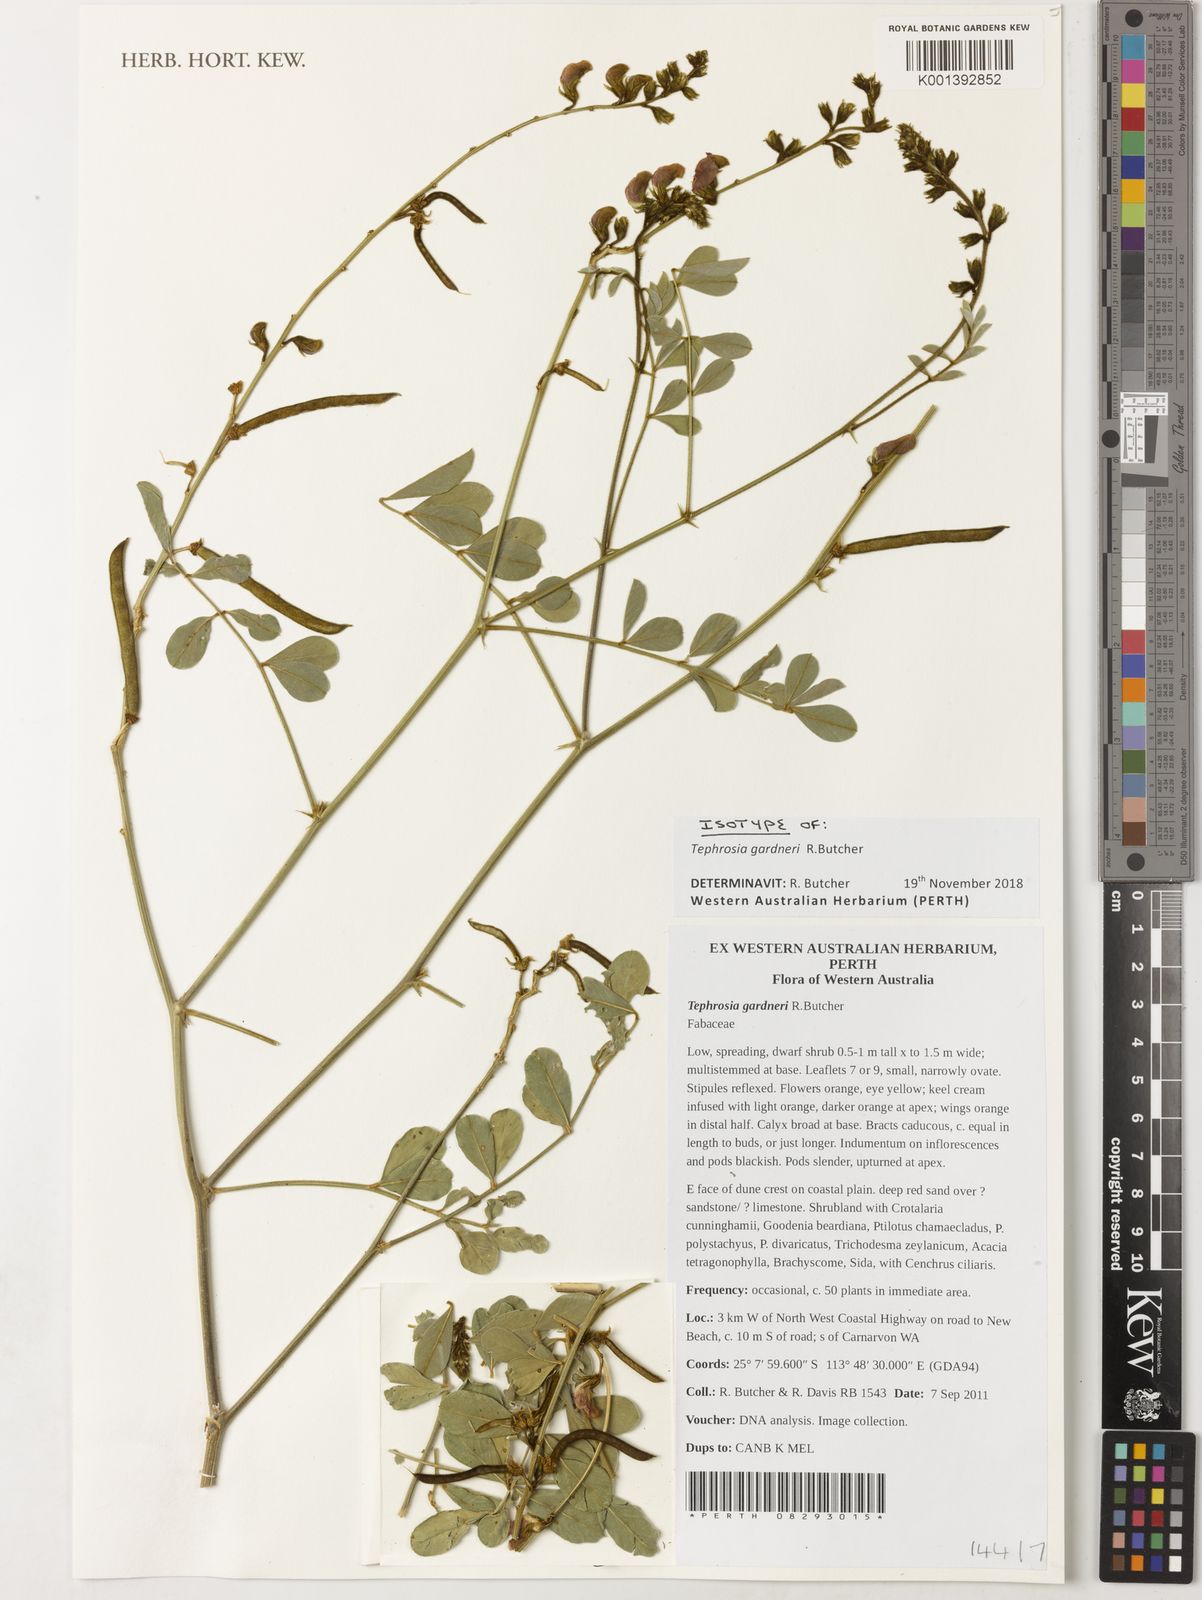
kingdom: Plantae
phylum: Tracheophyta
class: Magnoliopsida
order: Fabales
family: Fabaceae
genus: Tephrosia
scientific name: Tephrosia gardneri
